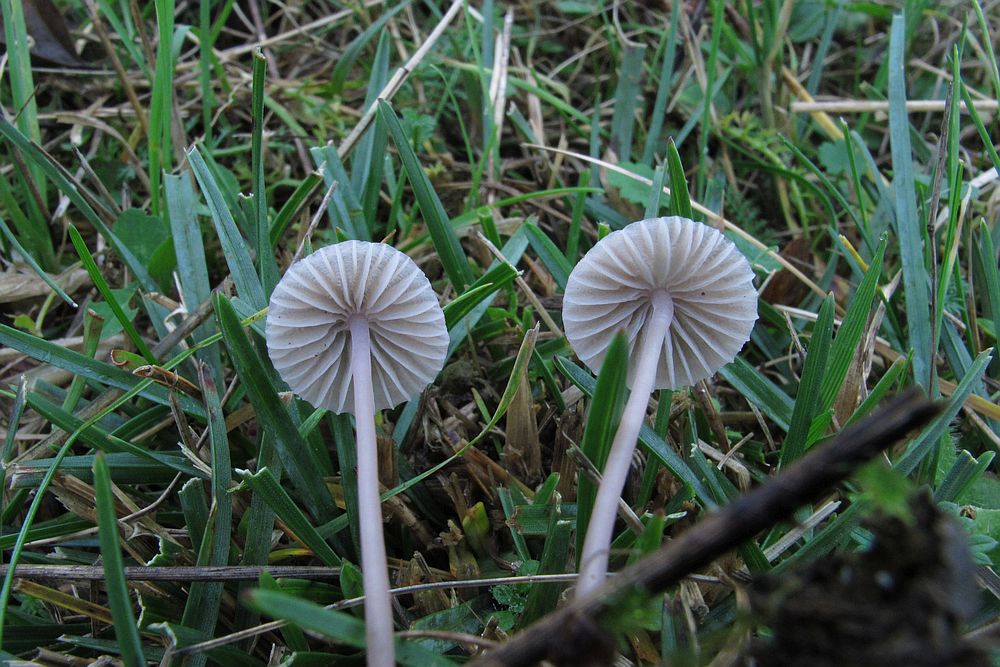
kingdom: Fungi
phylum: Basidiomycota
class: Agaricomycetes
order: Agaricales
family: Mycenaceae
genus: Mycena
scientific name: Mycena vitilis
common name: blankstokket huesvamp
